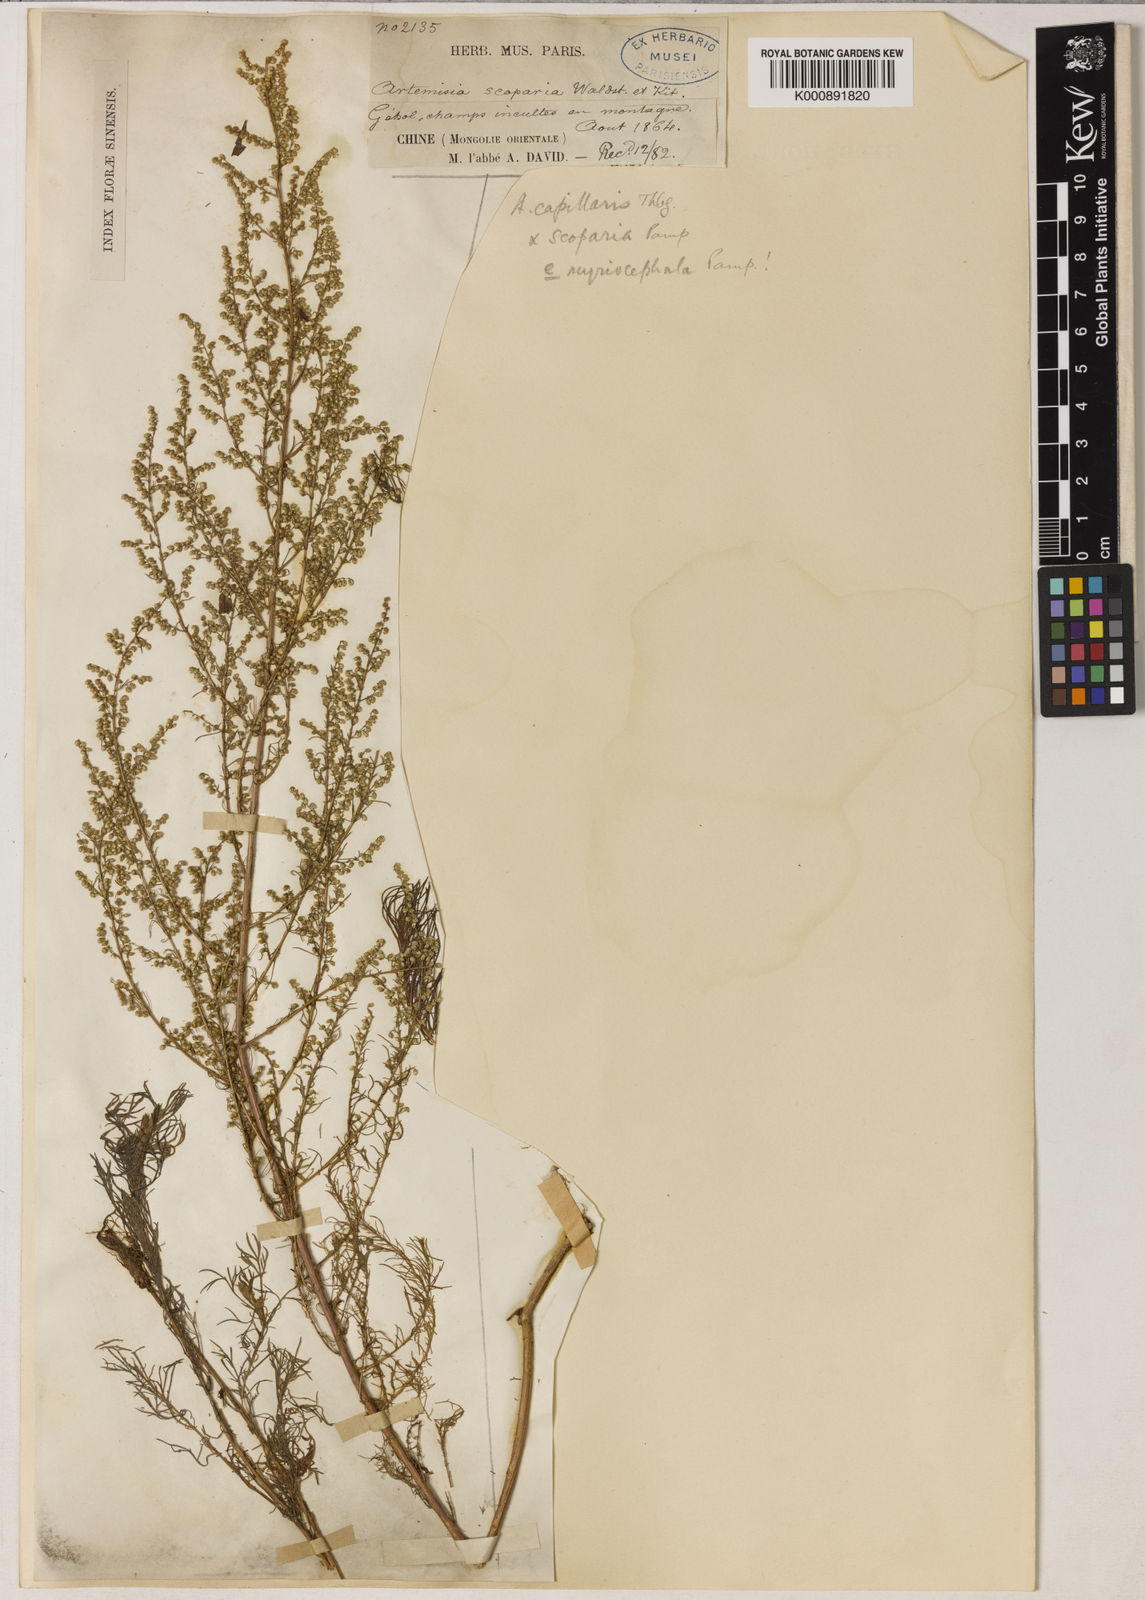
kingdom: Plantae
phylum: Tracheophyta
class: Magnoliopsida
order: Asterales
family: Asteraceae
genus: Artemisia
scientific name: Artemisia scoparia
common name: Redstem wormwood
